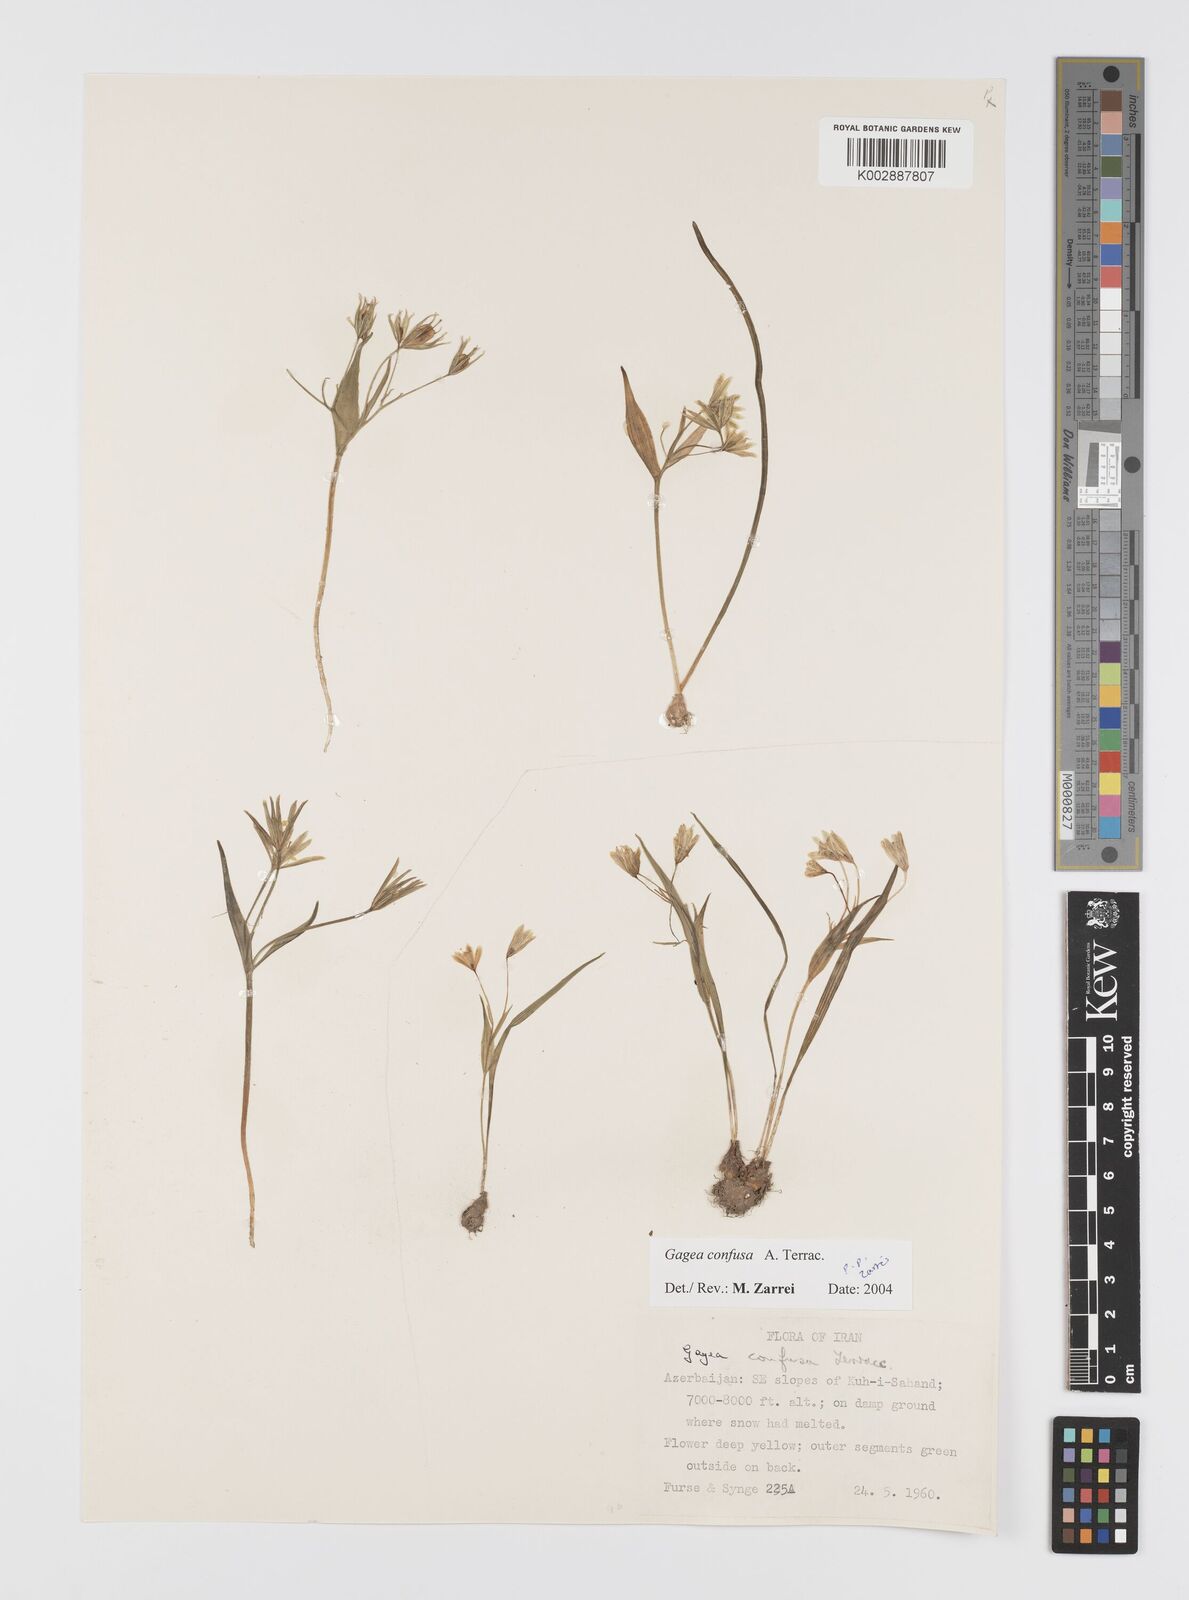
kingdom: Plantae
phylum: Tracheophyta
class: Liliopsida
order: Liliales
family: Liliaceae
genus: Gagea
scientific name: Gagea confusa
